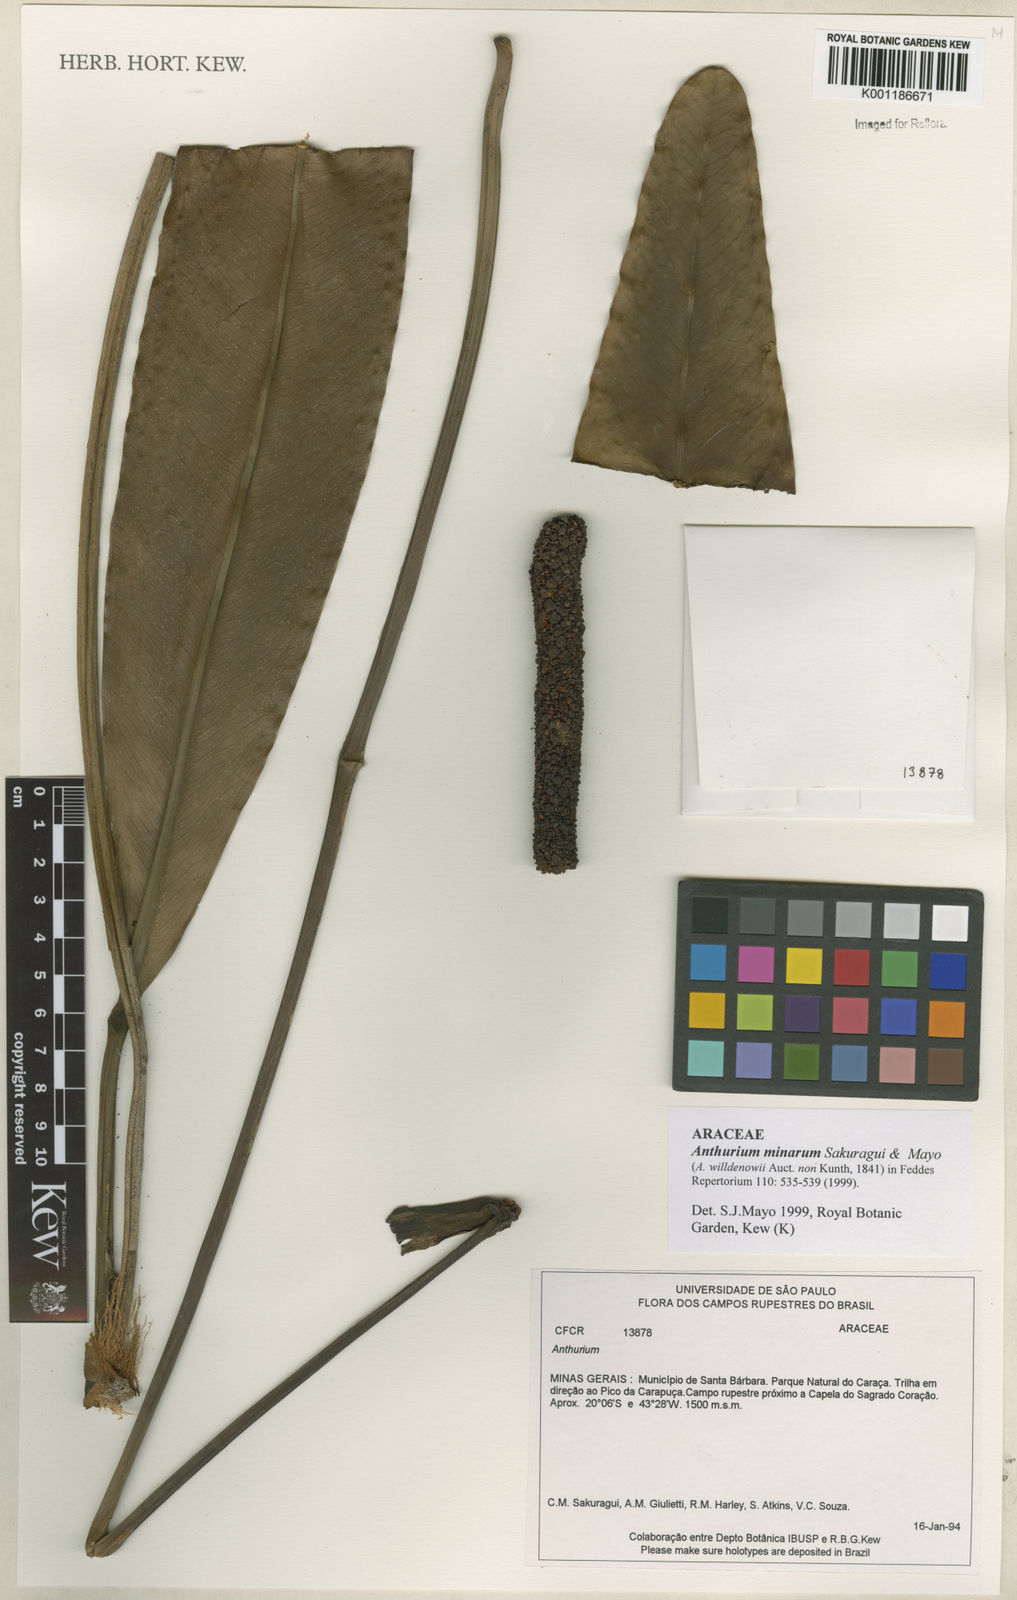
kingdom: Plantae
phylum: Tracheophyta
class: Liliopsida
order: Alismatales
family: Araceae
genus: Anthurium
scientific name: Anthurium minarum
